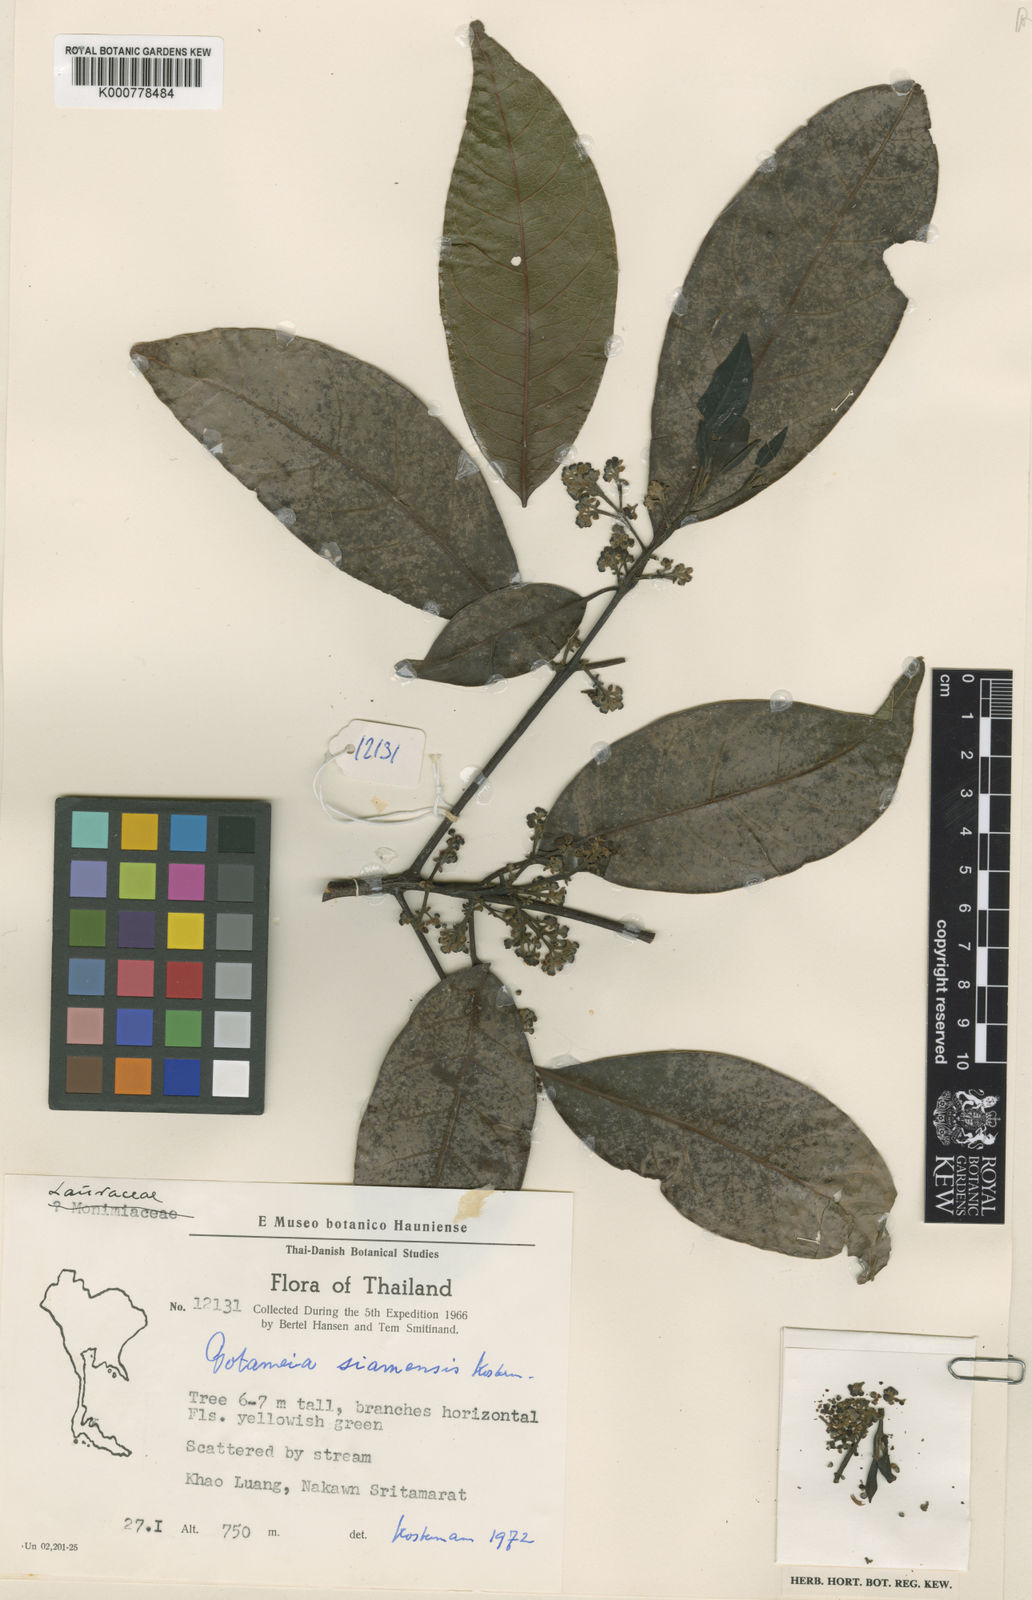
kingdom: Plantae
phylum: Tracheophyta
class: Magnoliopsida
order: Laurales
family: Lauraceae
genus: Potameia
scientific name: Potameia siamensis
